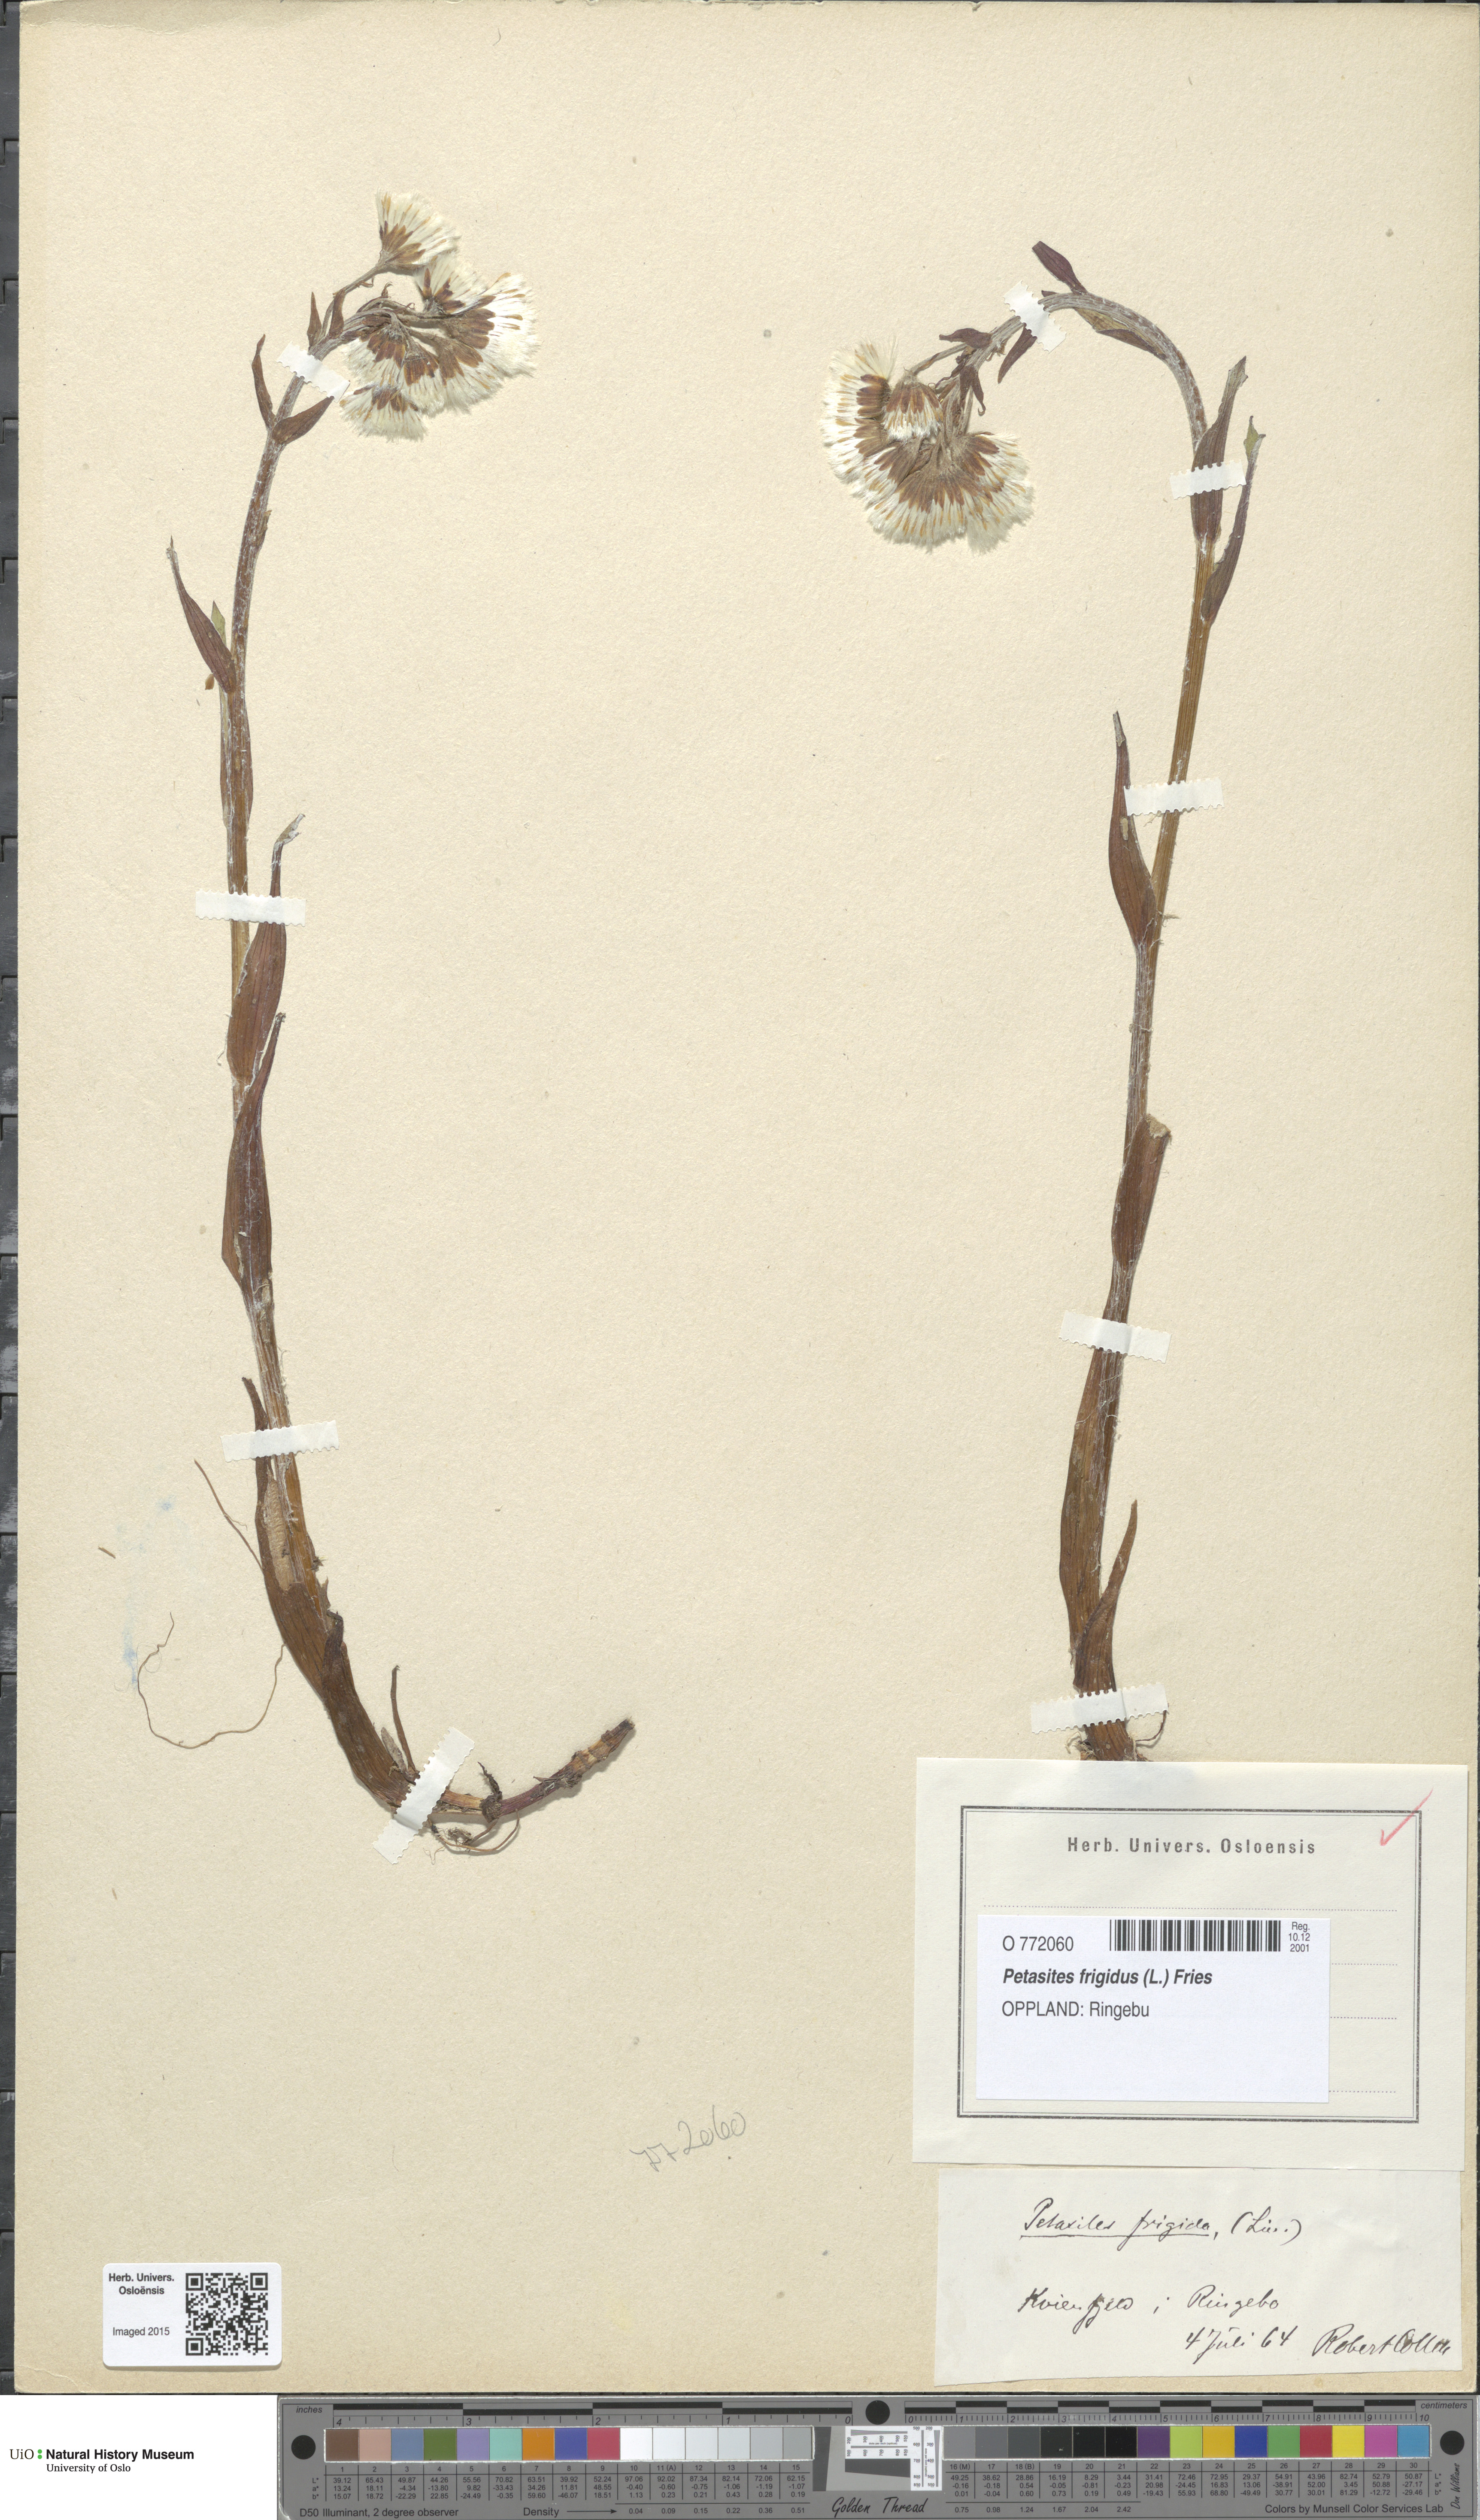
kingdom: Plantae
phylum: Tracheophyta
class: Magnoliopsida
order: Asterales
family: Asteraceae
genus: Petasites
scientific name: Petasites frigidus
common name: Arctic butterbur
